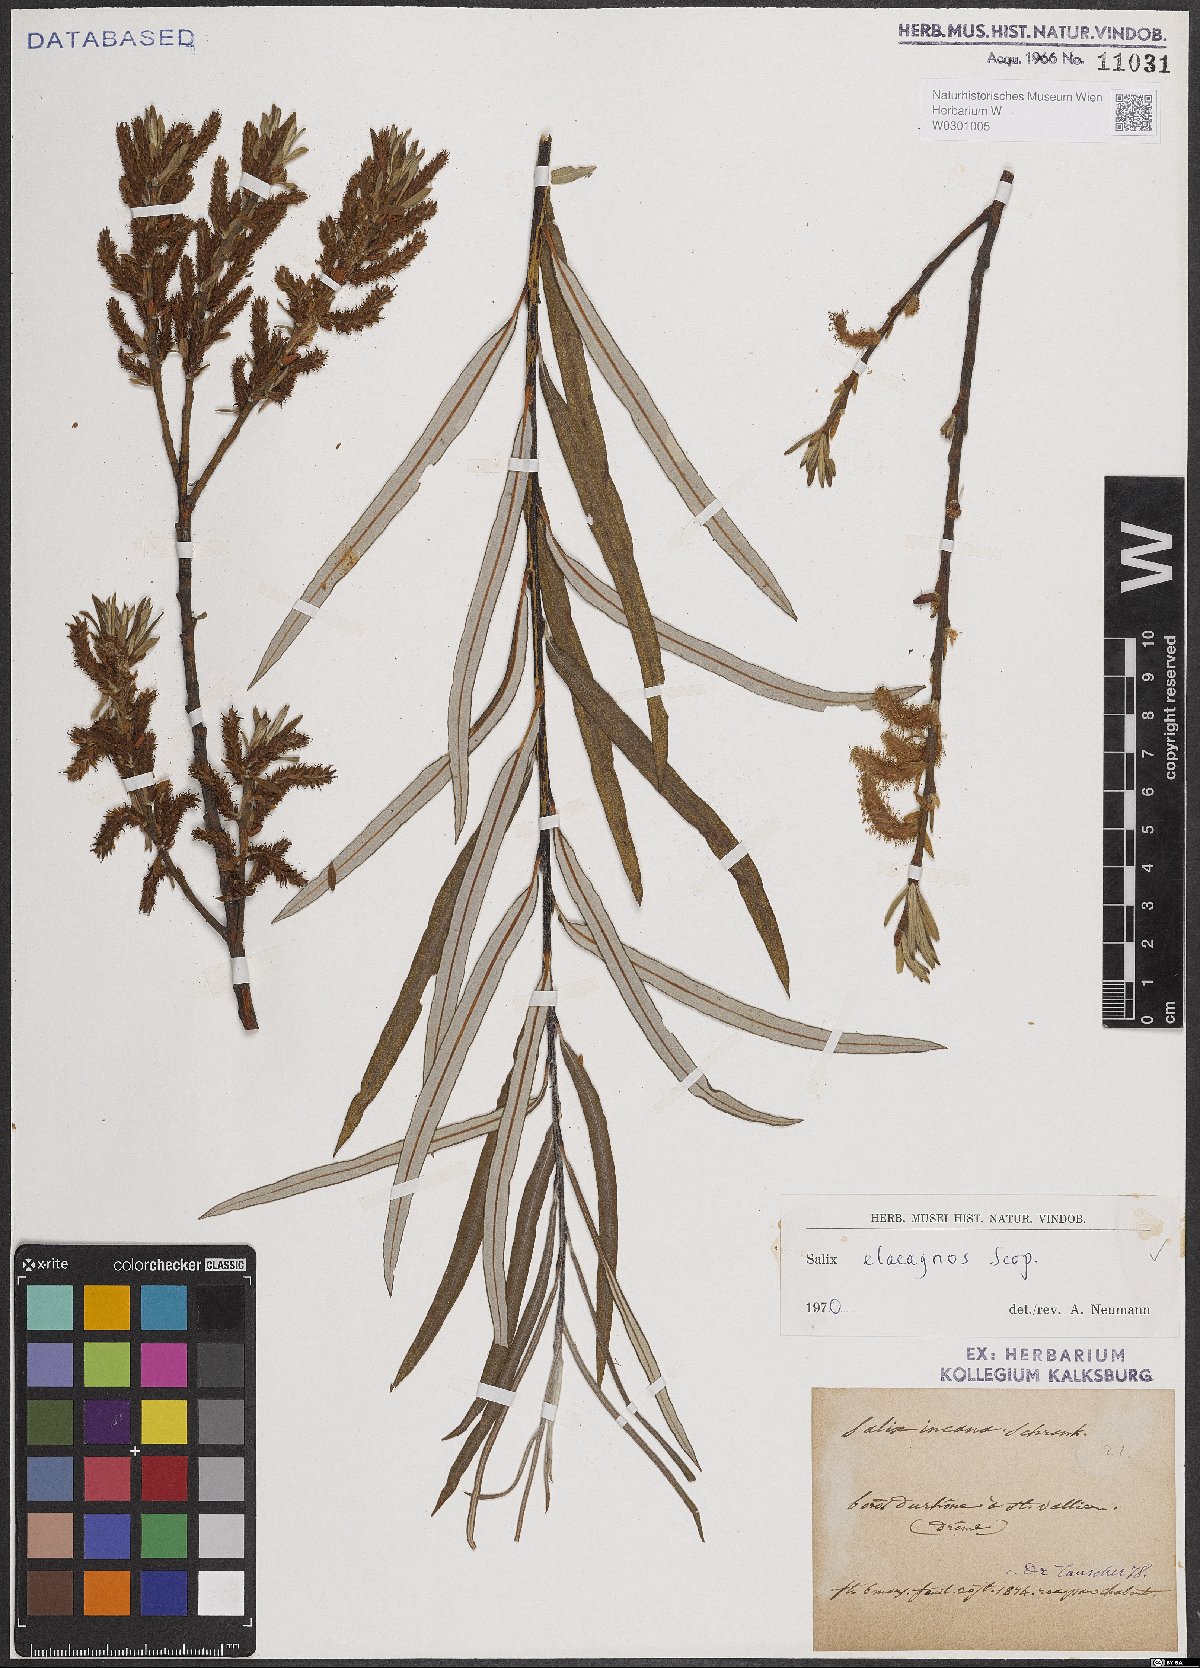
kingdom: Plantae
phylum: Tracheophyta
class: Magnoliopsida
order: Malpighiales
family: Salicaceae
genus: Salix
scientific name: Salix eleagnos
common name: Elaeagnus willow
